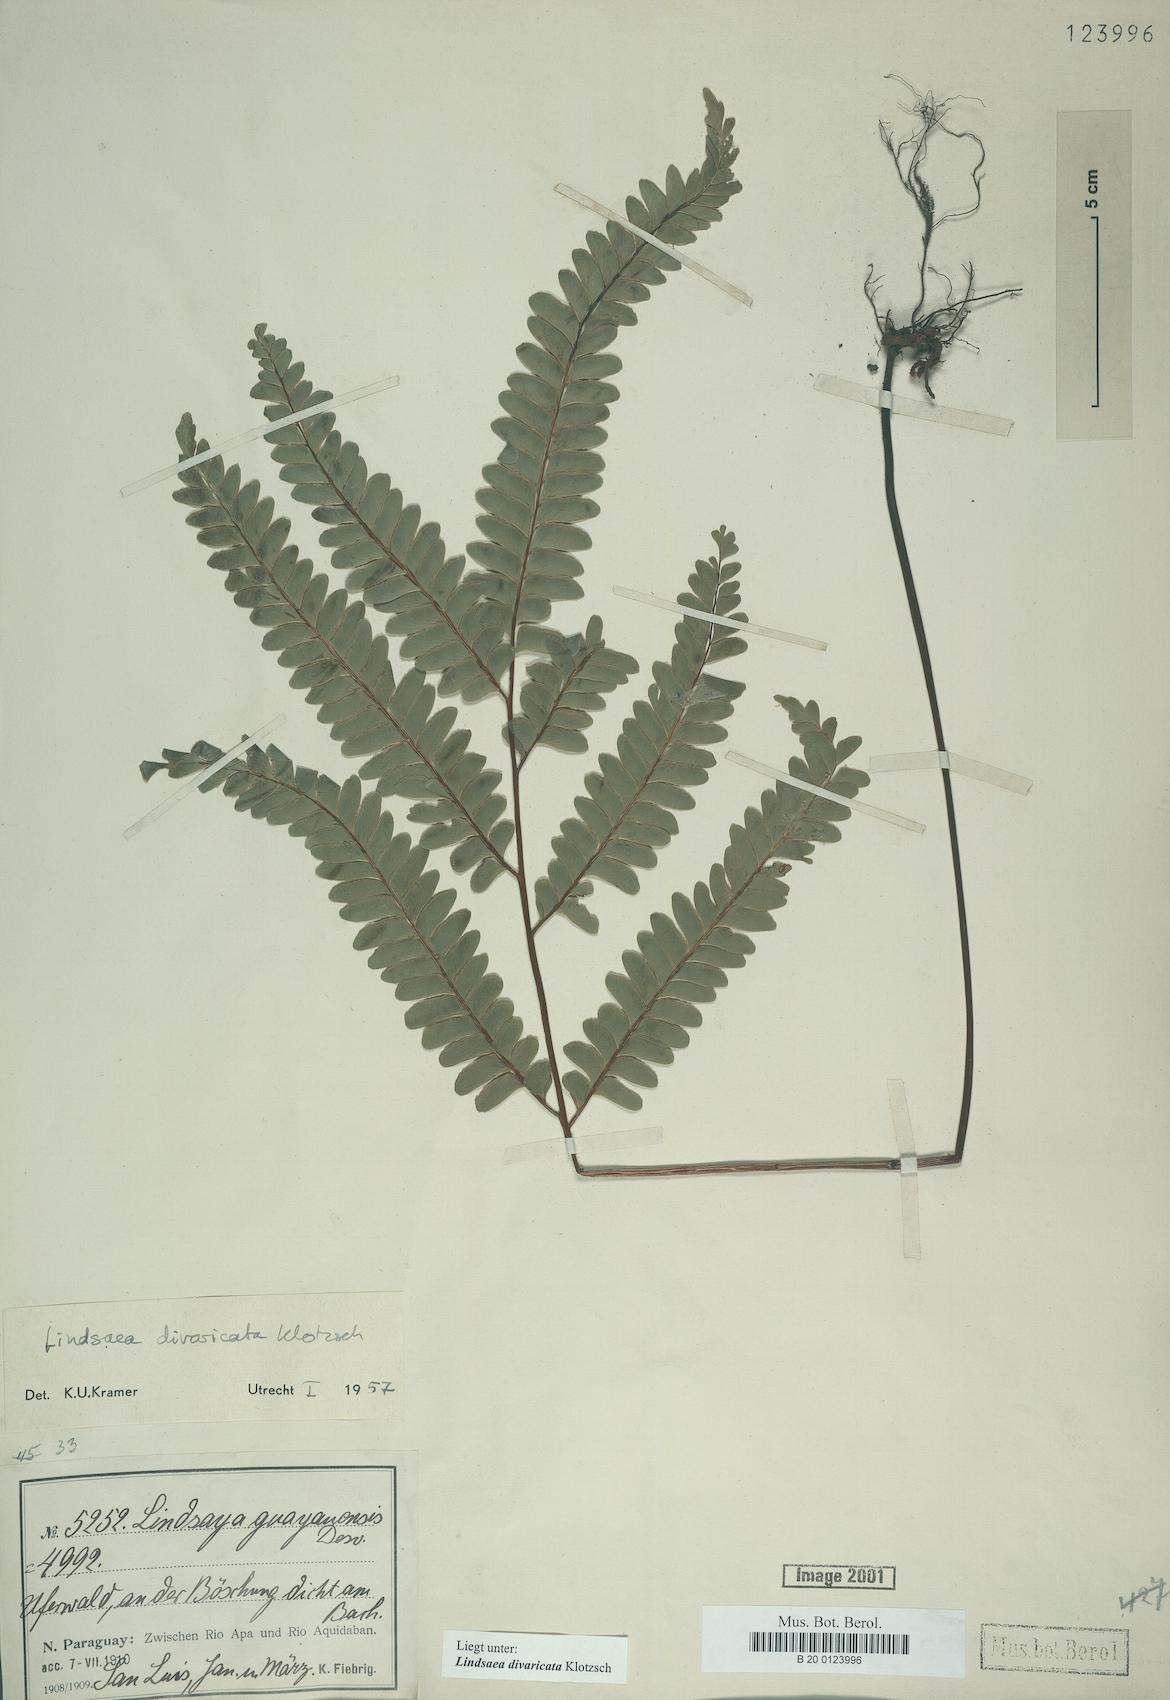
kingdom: Plantae
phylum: Tracheophyta
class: Polypodiopsida
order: Polypodiales
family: Lindsaeaceae
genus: Lindsaea
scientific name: Lindsaea divaricata
